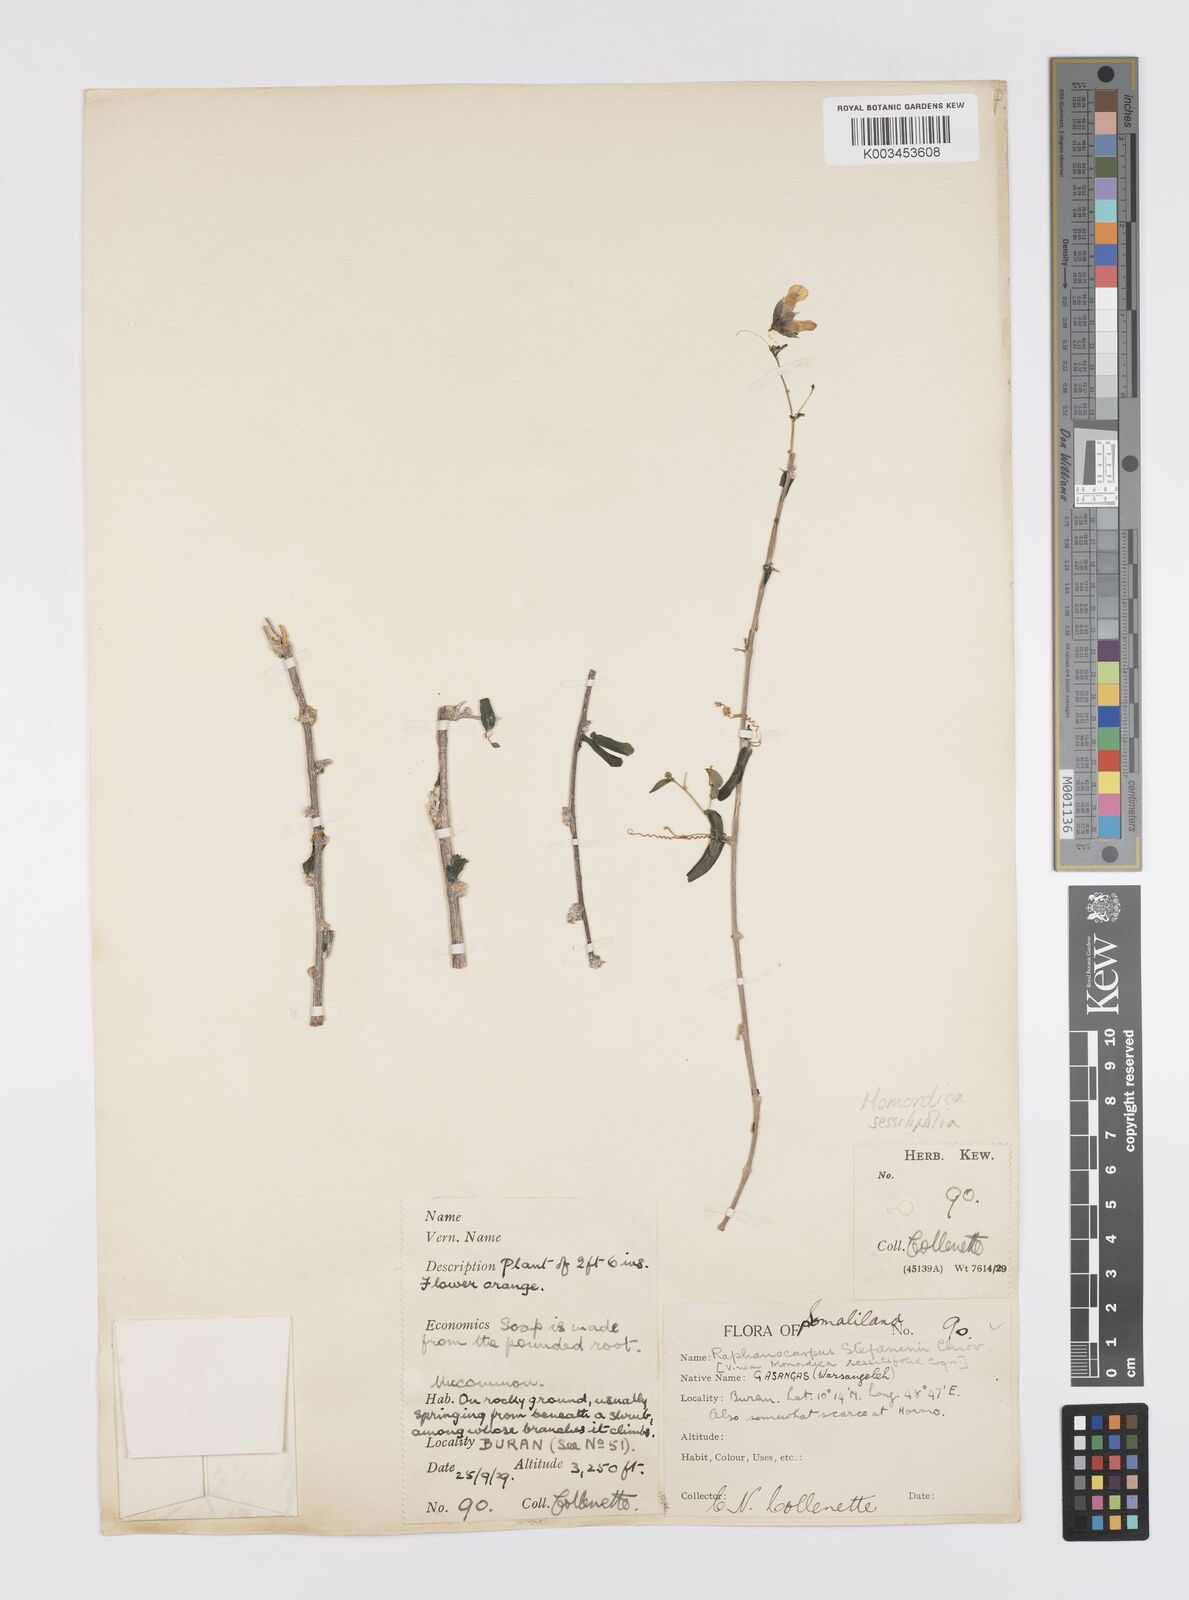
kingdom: Plantae
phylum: Tracheophyta
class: Magnoliopsida
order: Cucurbitales
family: Cucurbitaceae
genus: Momordica
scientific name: Momordica sessilifolia
